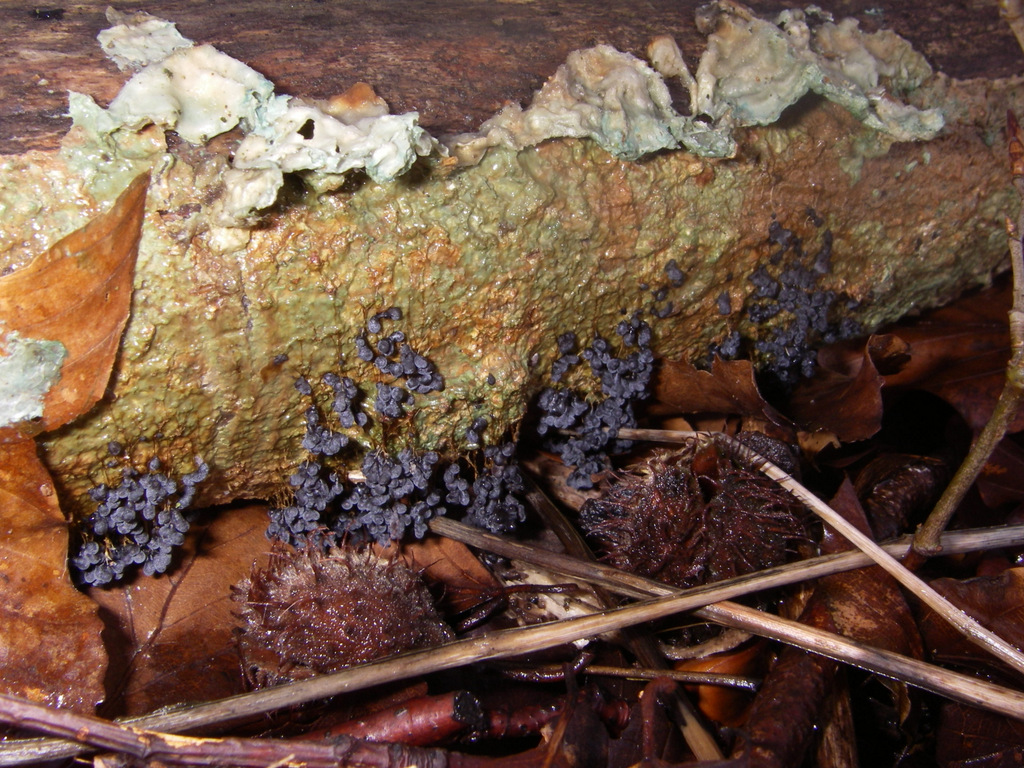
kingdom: Protozoa
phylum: Mycetozoa
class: Myxomycetes
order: Physarales
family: Physaraceae
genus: Badhamia
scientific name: Badhamia utricularis
